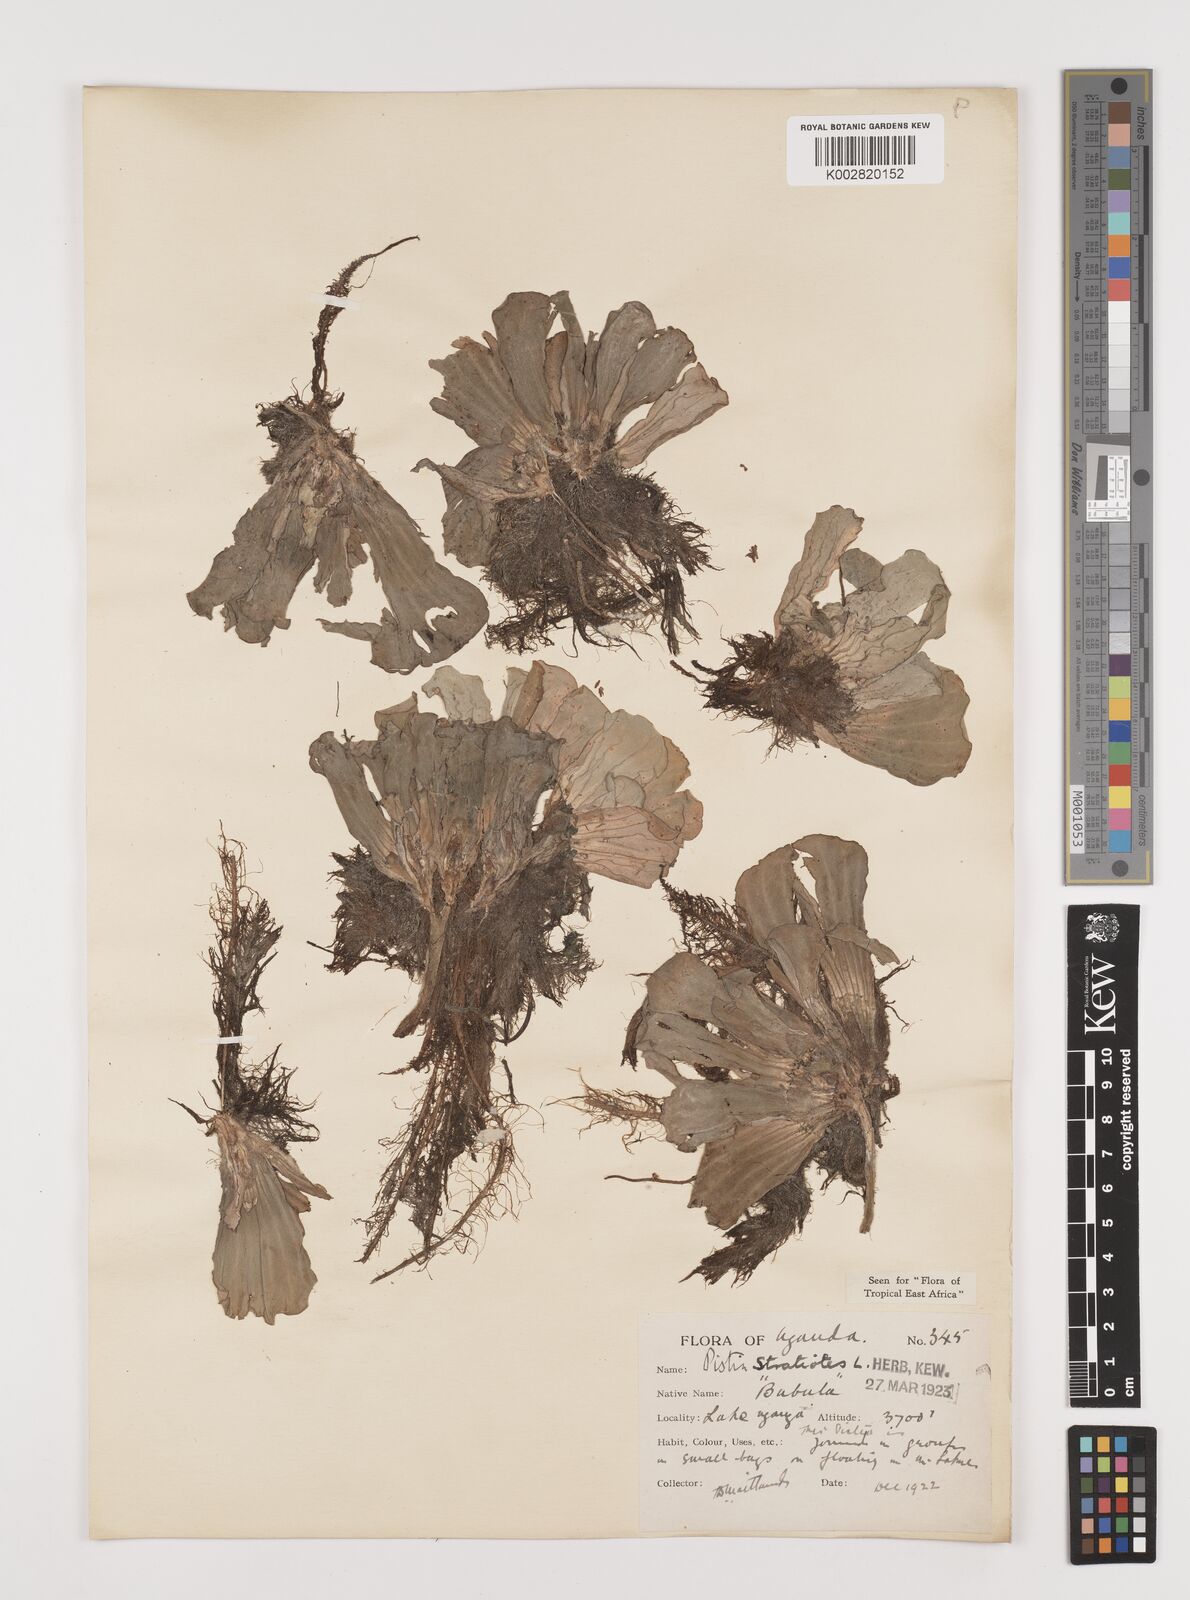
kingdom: Plantae
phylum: Tracheophyta
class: Liliopsida
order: Alismatales
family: Araceae
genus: Pistia
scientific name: Pistia stratiotes
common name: Water lettuce
